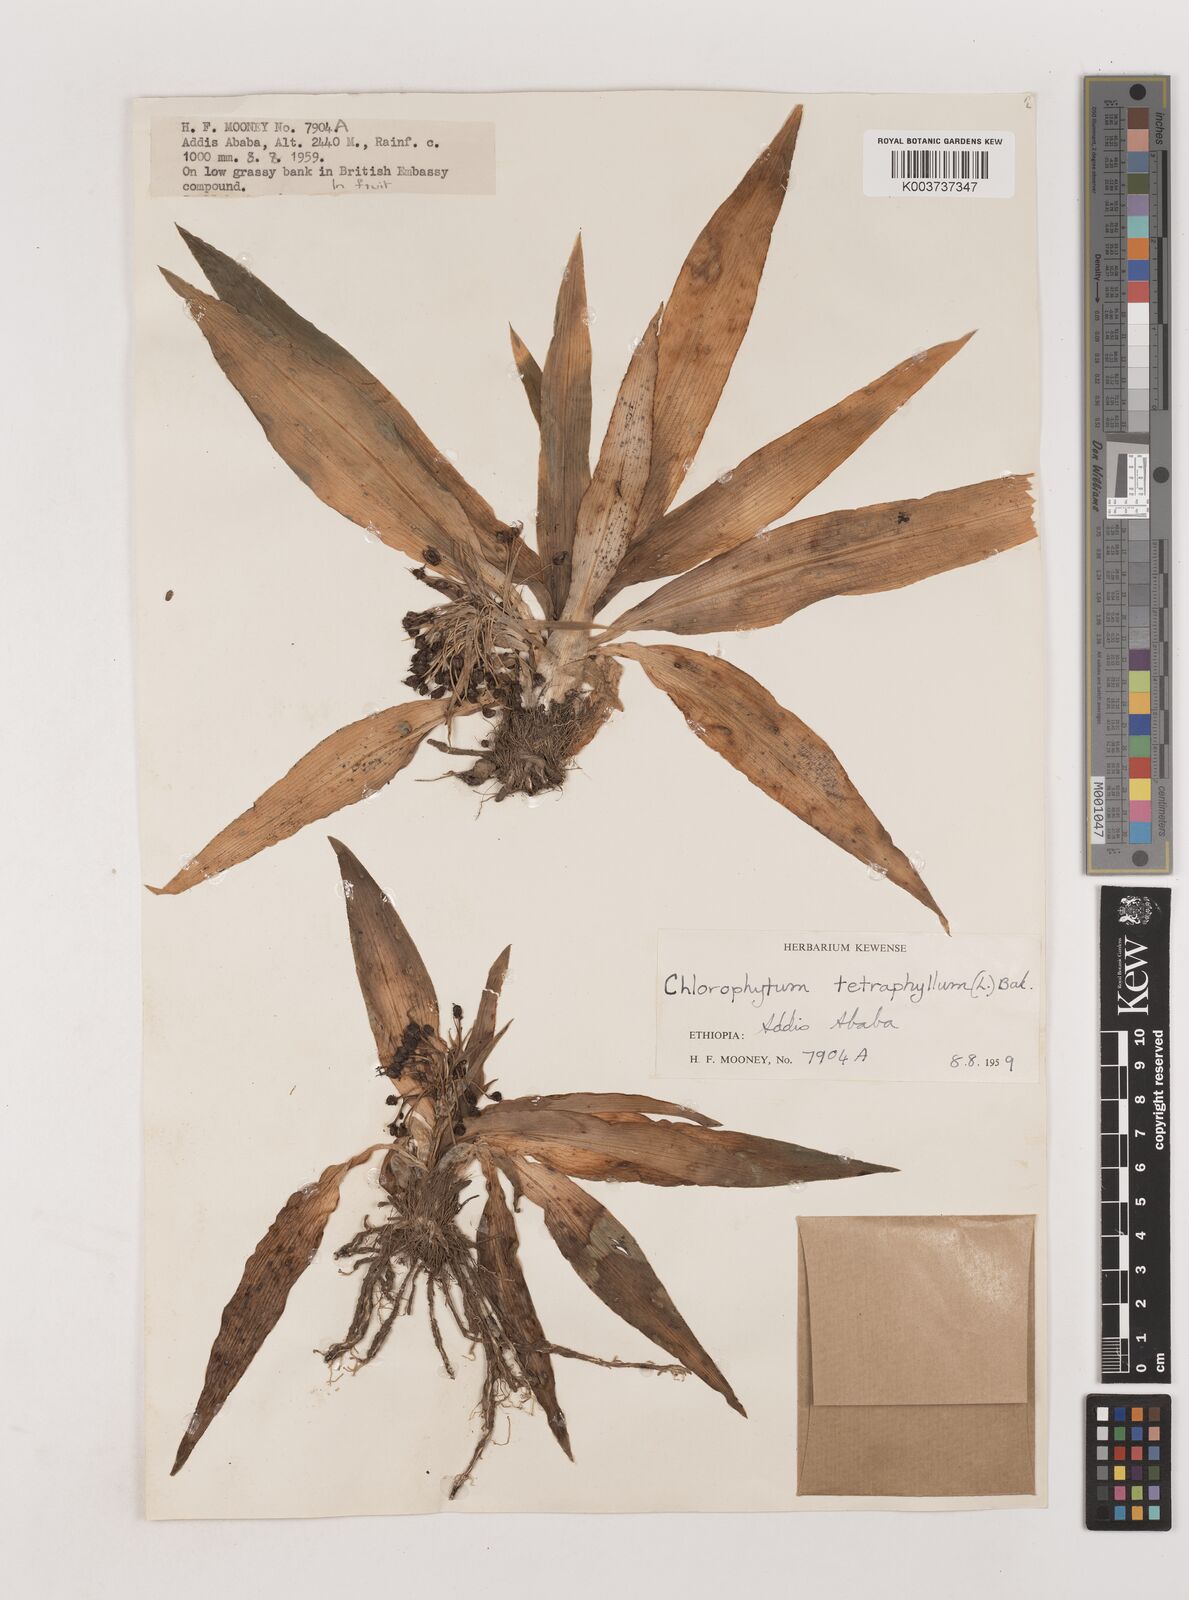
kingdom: Plantae
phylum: Tracheophyta
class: Liliopsida
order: Asparagales
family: Asparagaceae
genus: Chlorophytum
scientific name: Chlorophytum tetraphyllum
